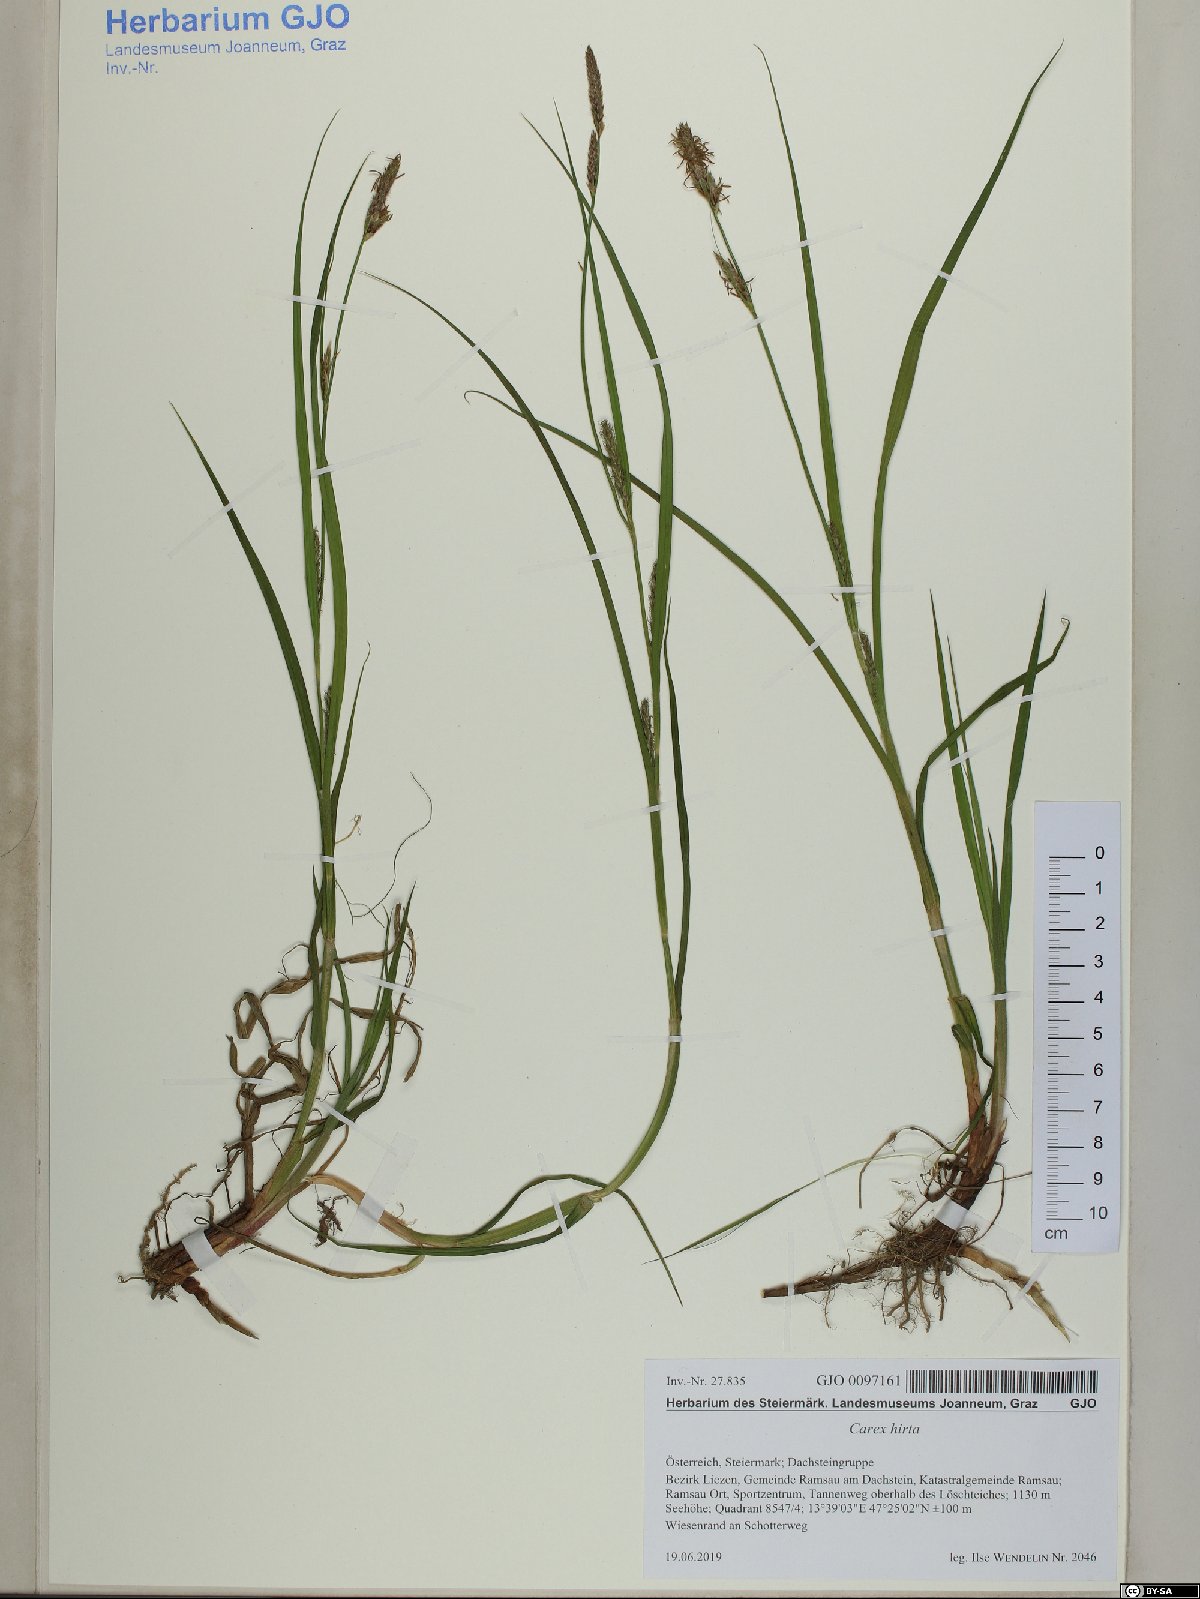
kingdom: Plantae
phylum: Tracheophyta
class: Liliopsida
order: Poales
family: Cyperaceae
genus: Carex
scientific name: Carex hirta
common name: Hairy sedge
